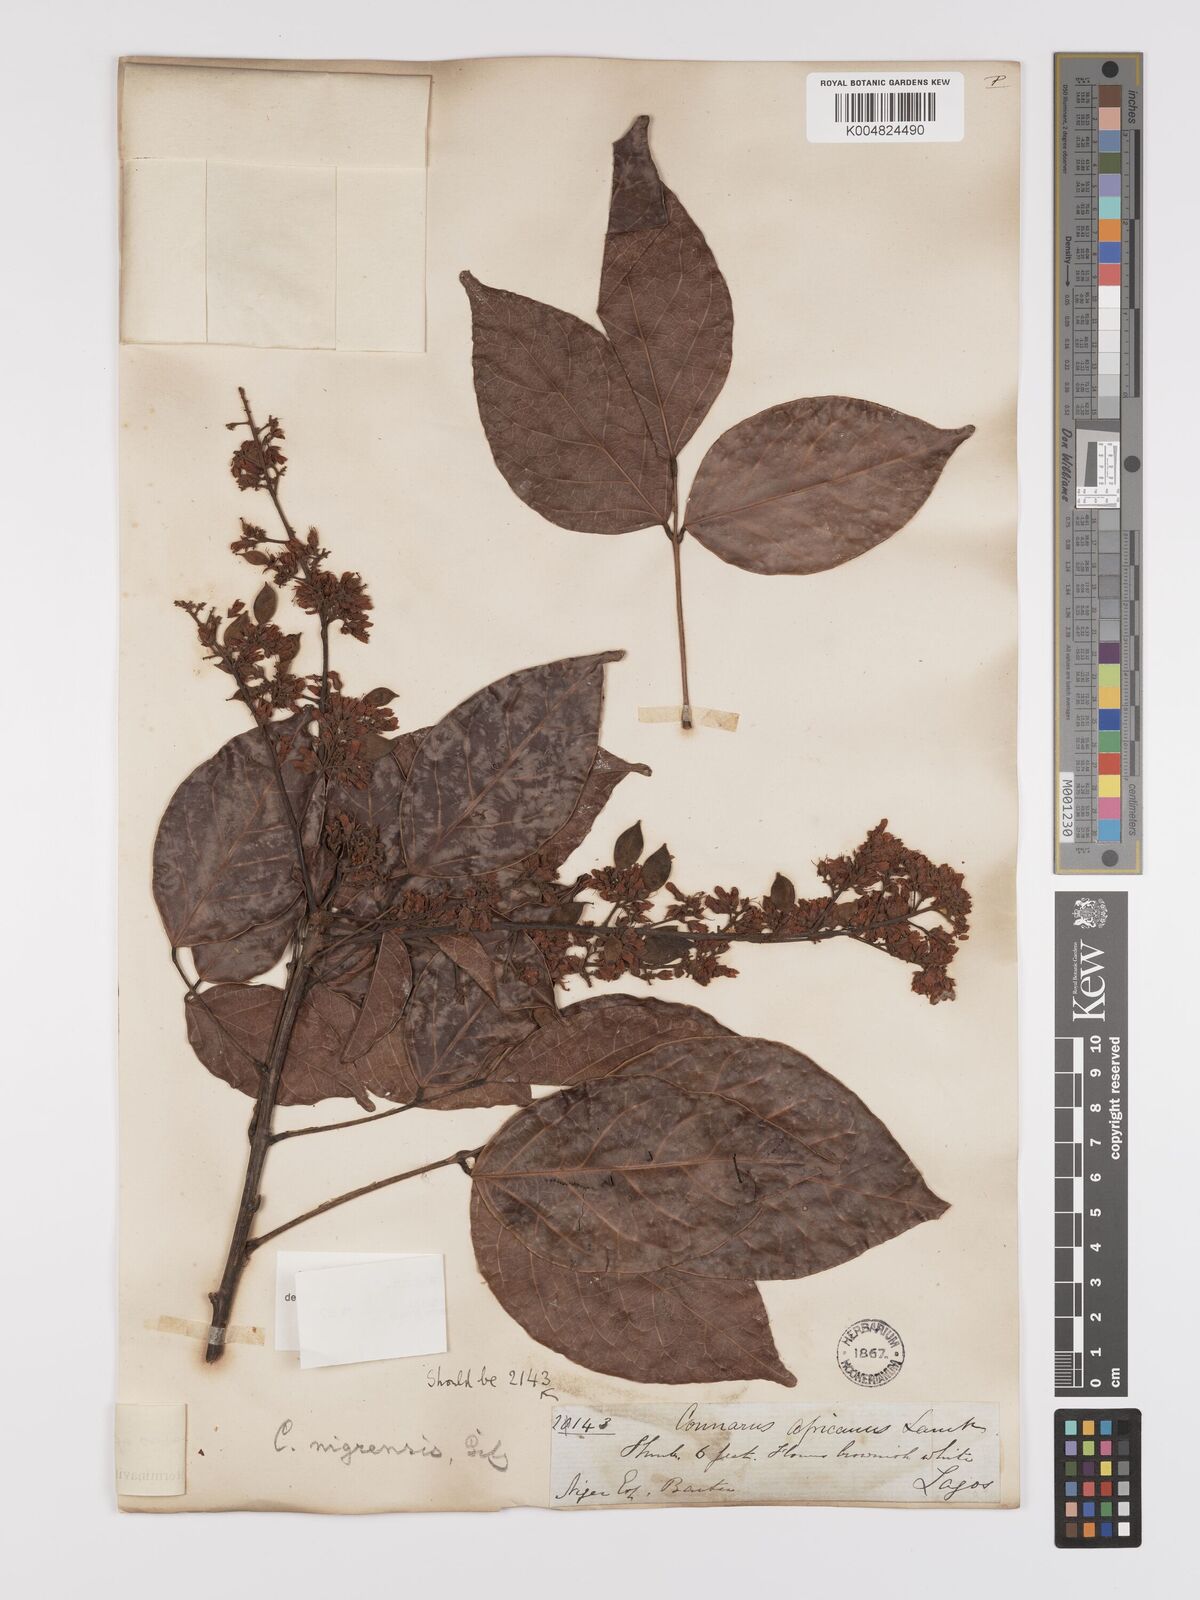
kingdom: Plantae
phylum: Tracheophyta
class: Magnoliopsida
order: Oxalidales
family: Connaraceae
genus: Connarus
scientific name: Connarus africanus
